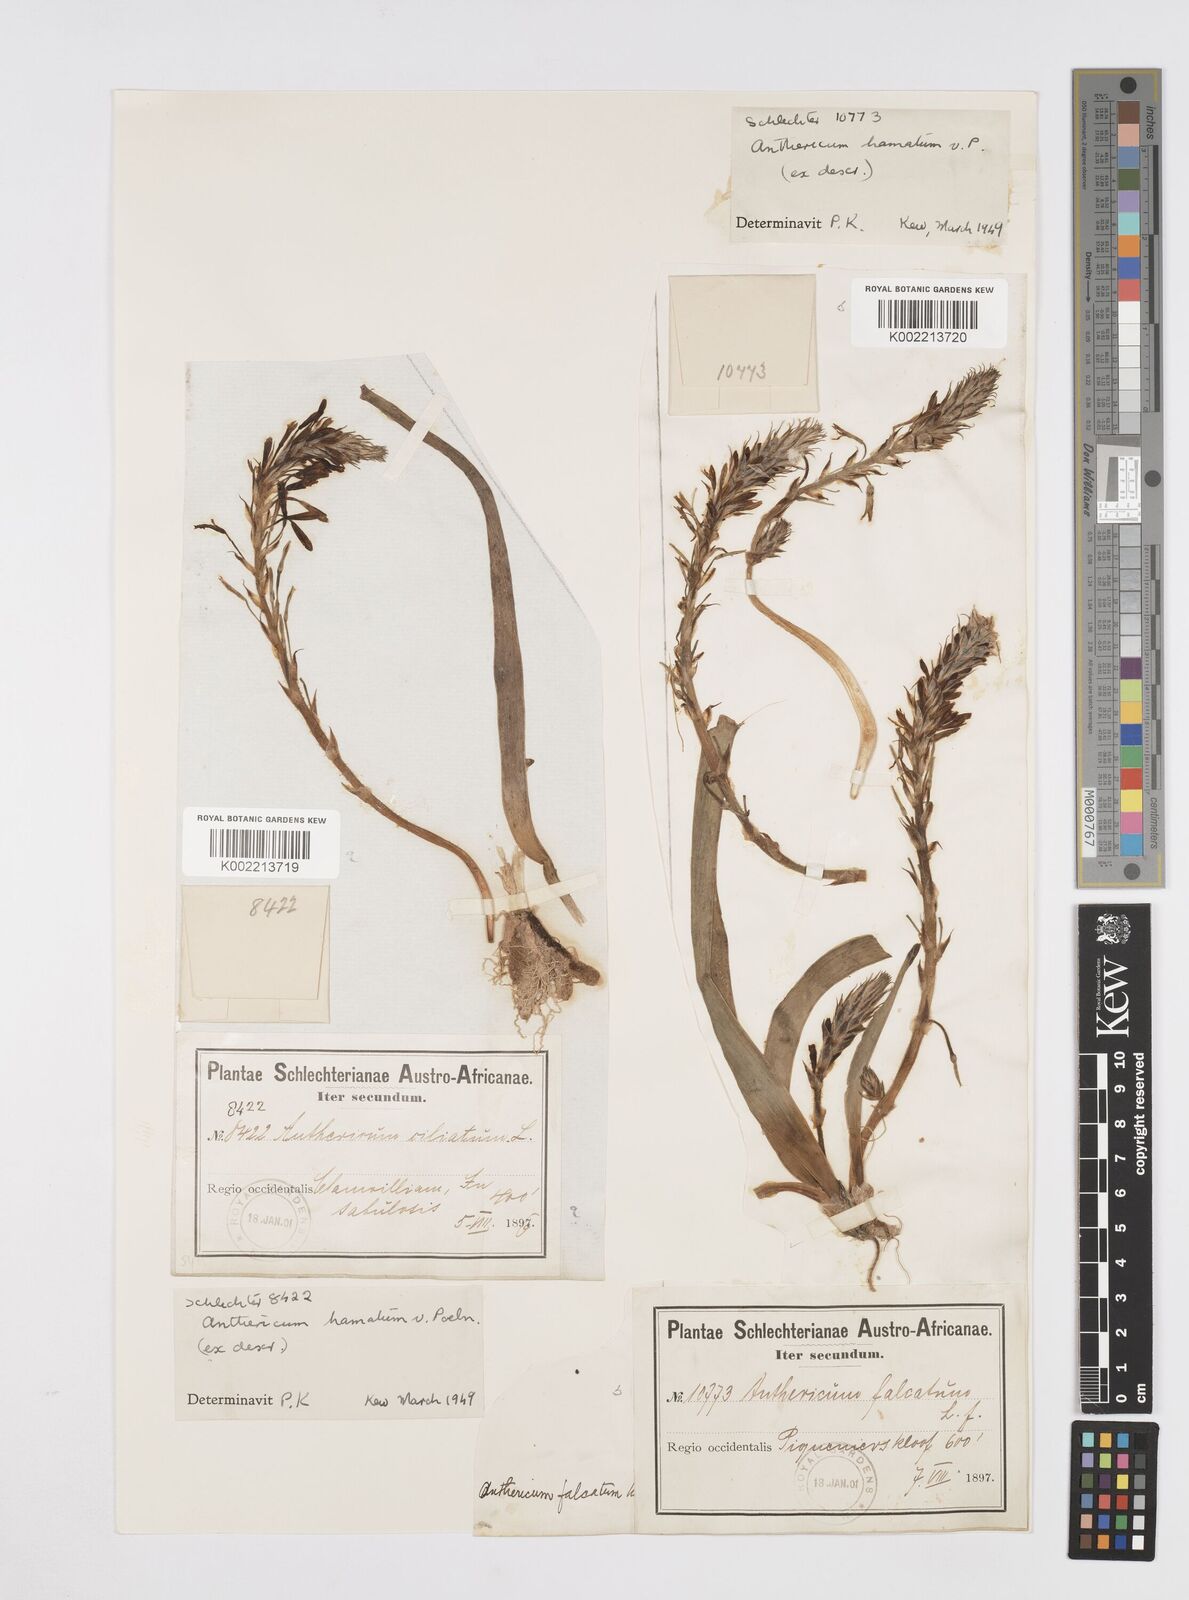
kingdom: Plantae
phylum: Tracheophyta
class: Liliopsida
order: Asparagales
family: Asphodelaceae
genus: Trachyandra
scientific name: Trachyandra ciliata
